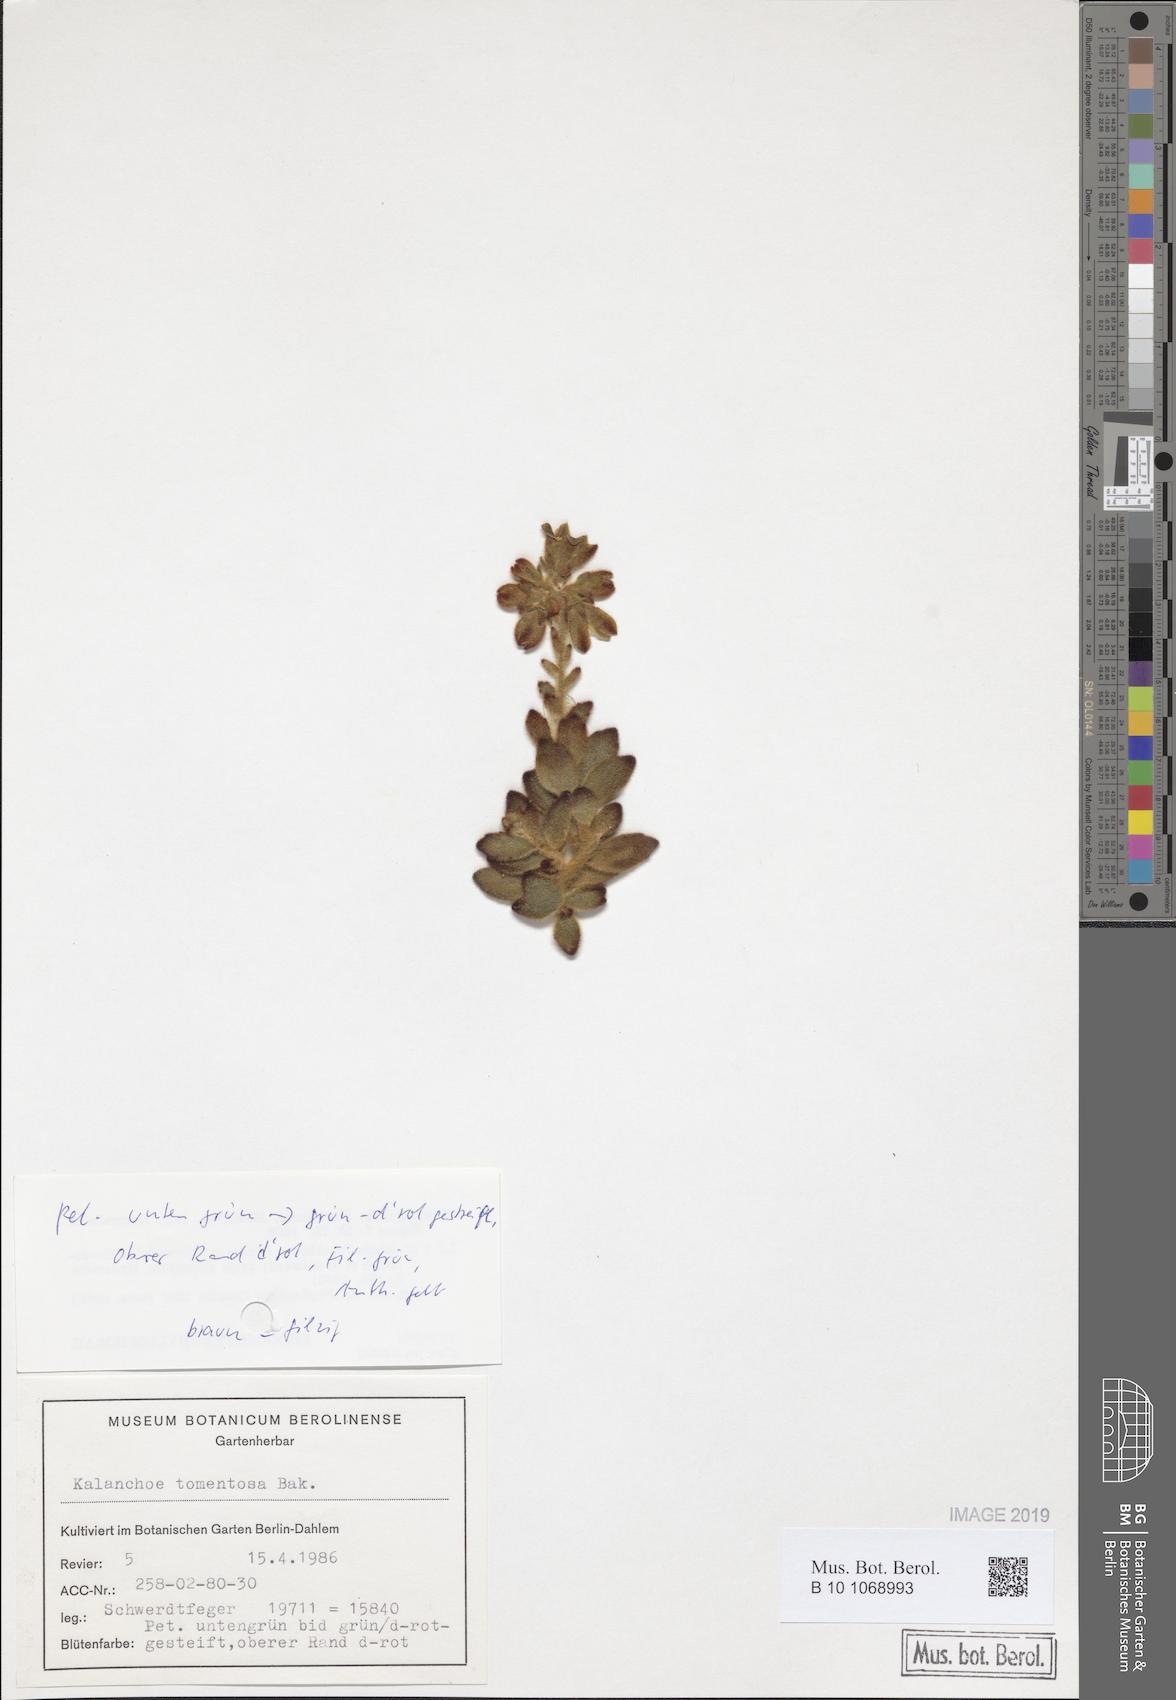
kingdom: Plantae
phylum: Tracheophyta
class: Magnoliopsida
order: Saxifragales
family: Crassulaceae
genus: Kalanchoe
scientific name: Kalanchoe tomentosa
